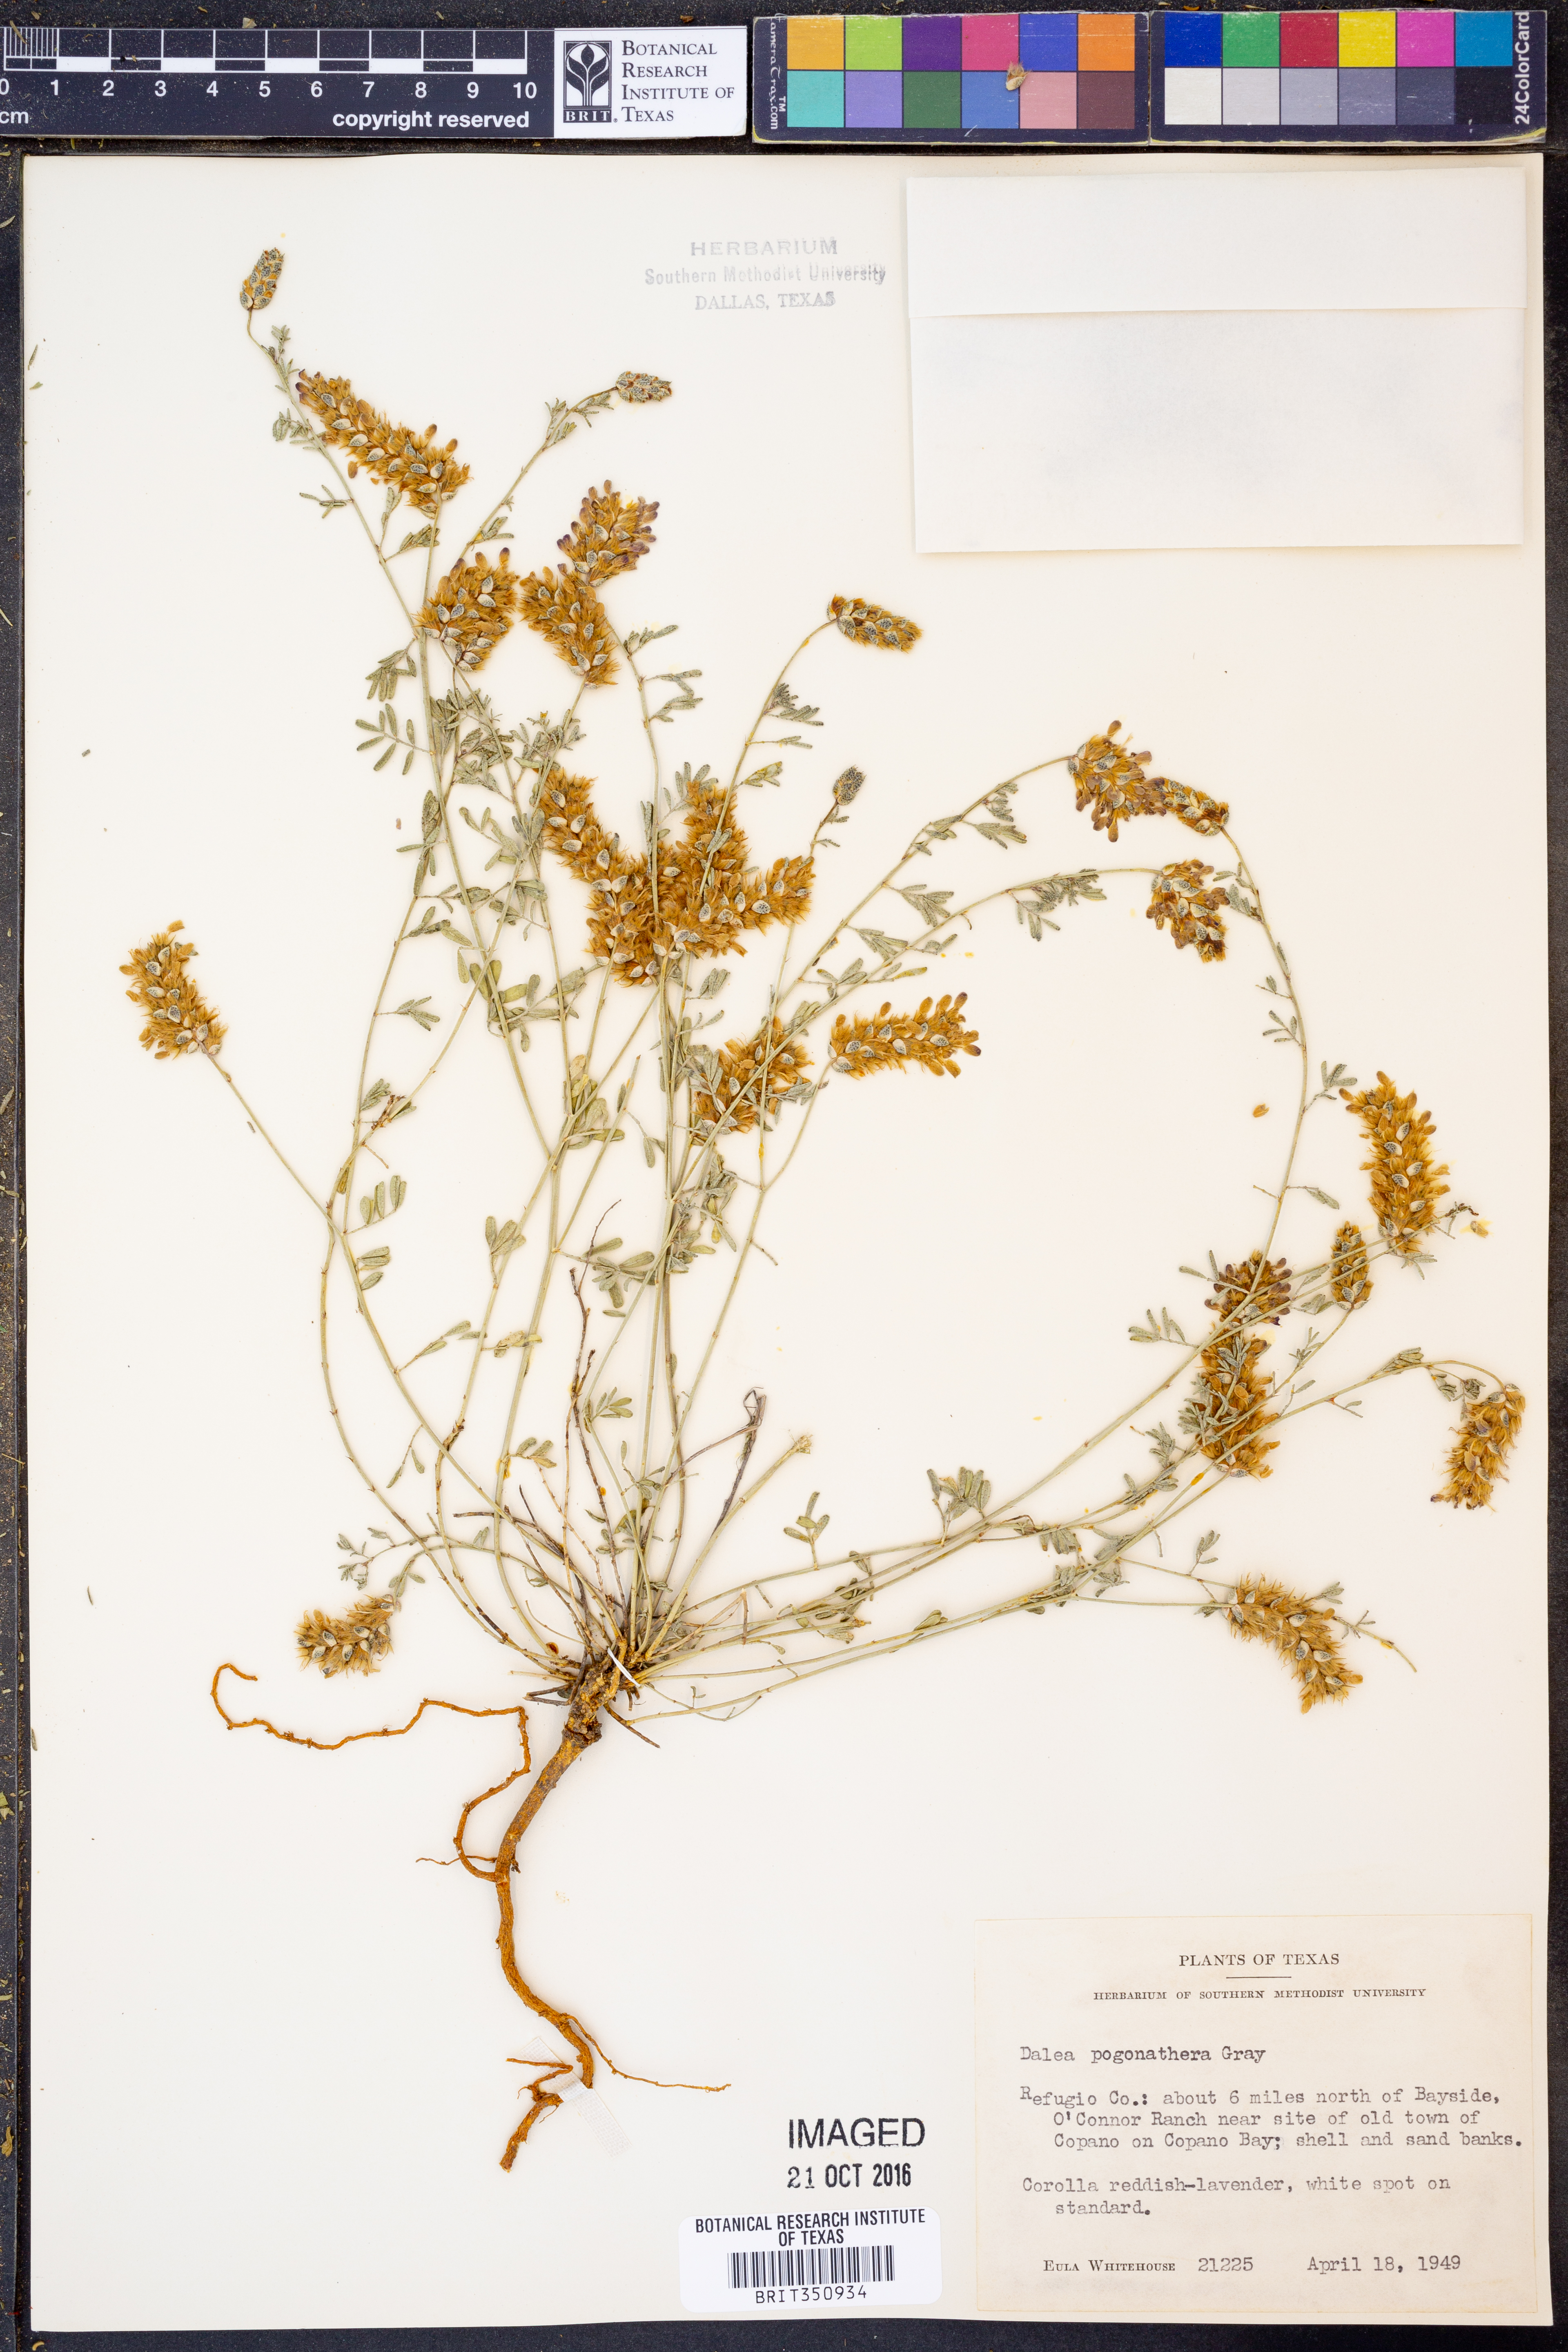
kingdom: Plantae
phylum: Tracheophyta
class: Magnoliopsida
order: Fabales
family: Fabaceae
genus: Dalea
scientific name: Dalea pogonathera
